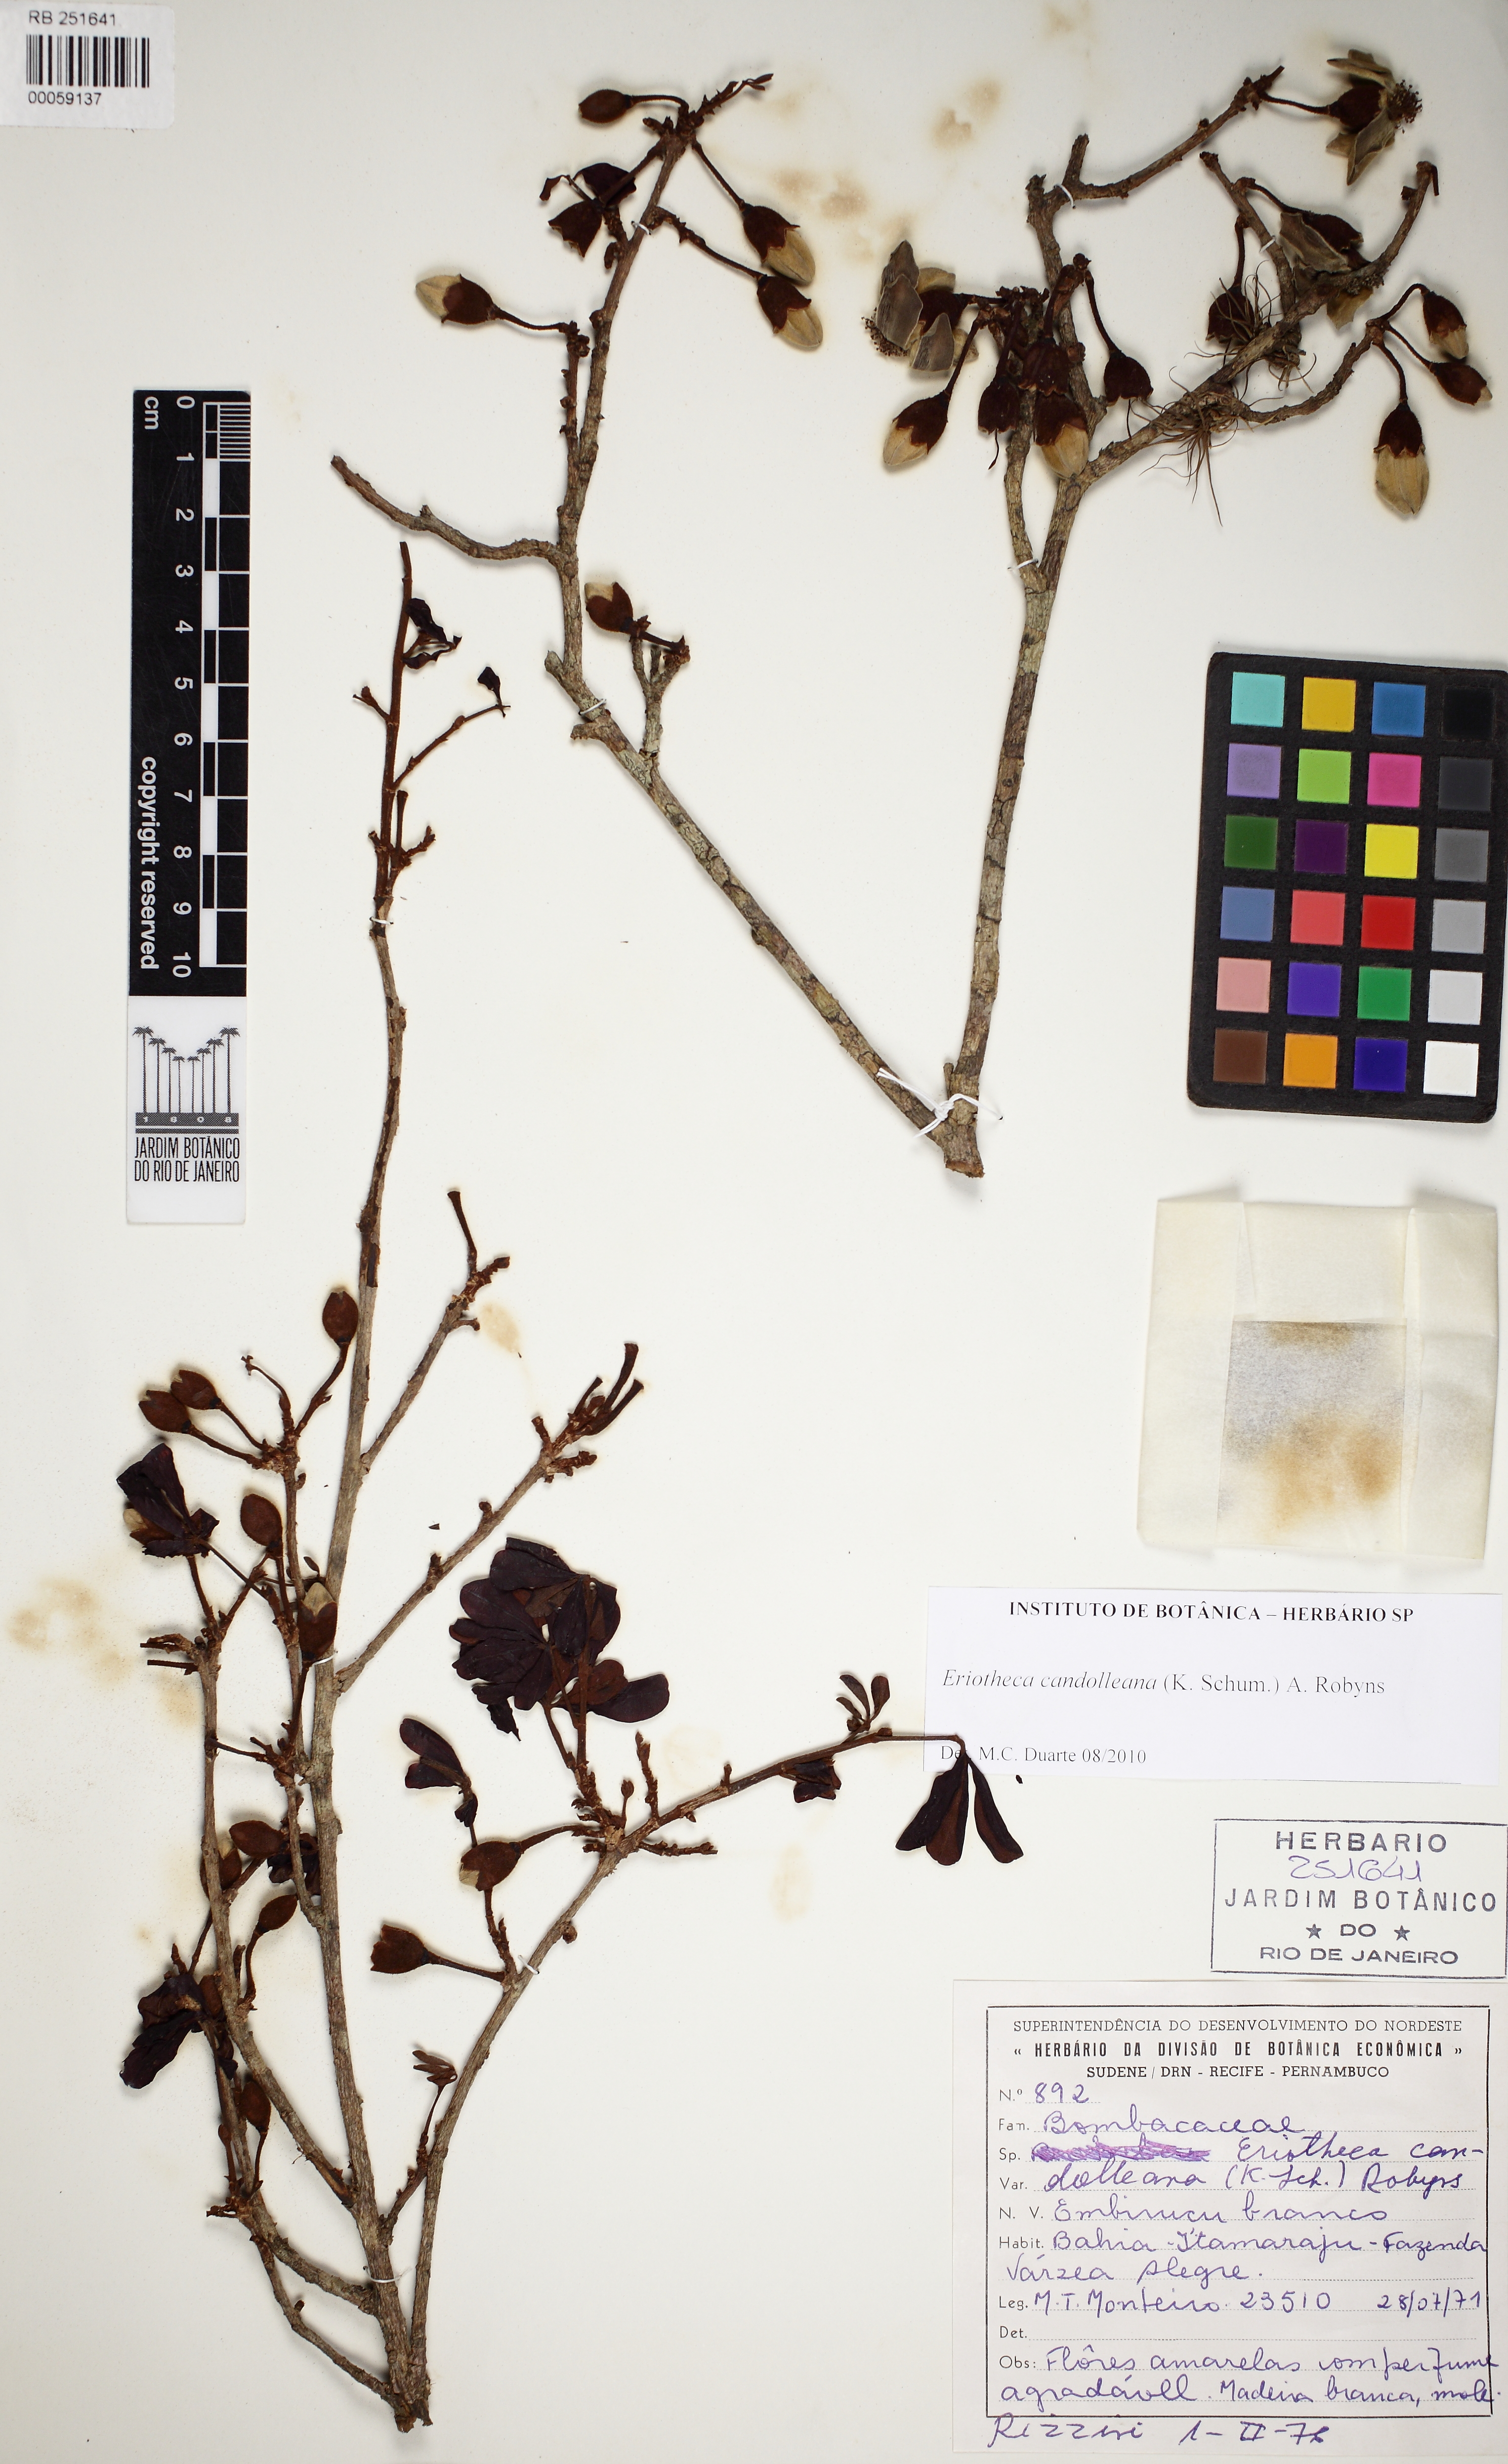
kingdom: Plantae
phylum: Tracheophyta
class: Magnoliopsida
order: Malvales
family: Malvaceae
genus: Eriotheca
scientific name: Eriotheca candolleana
